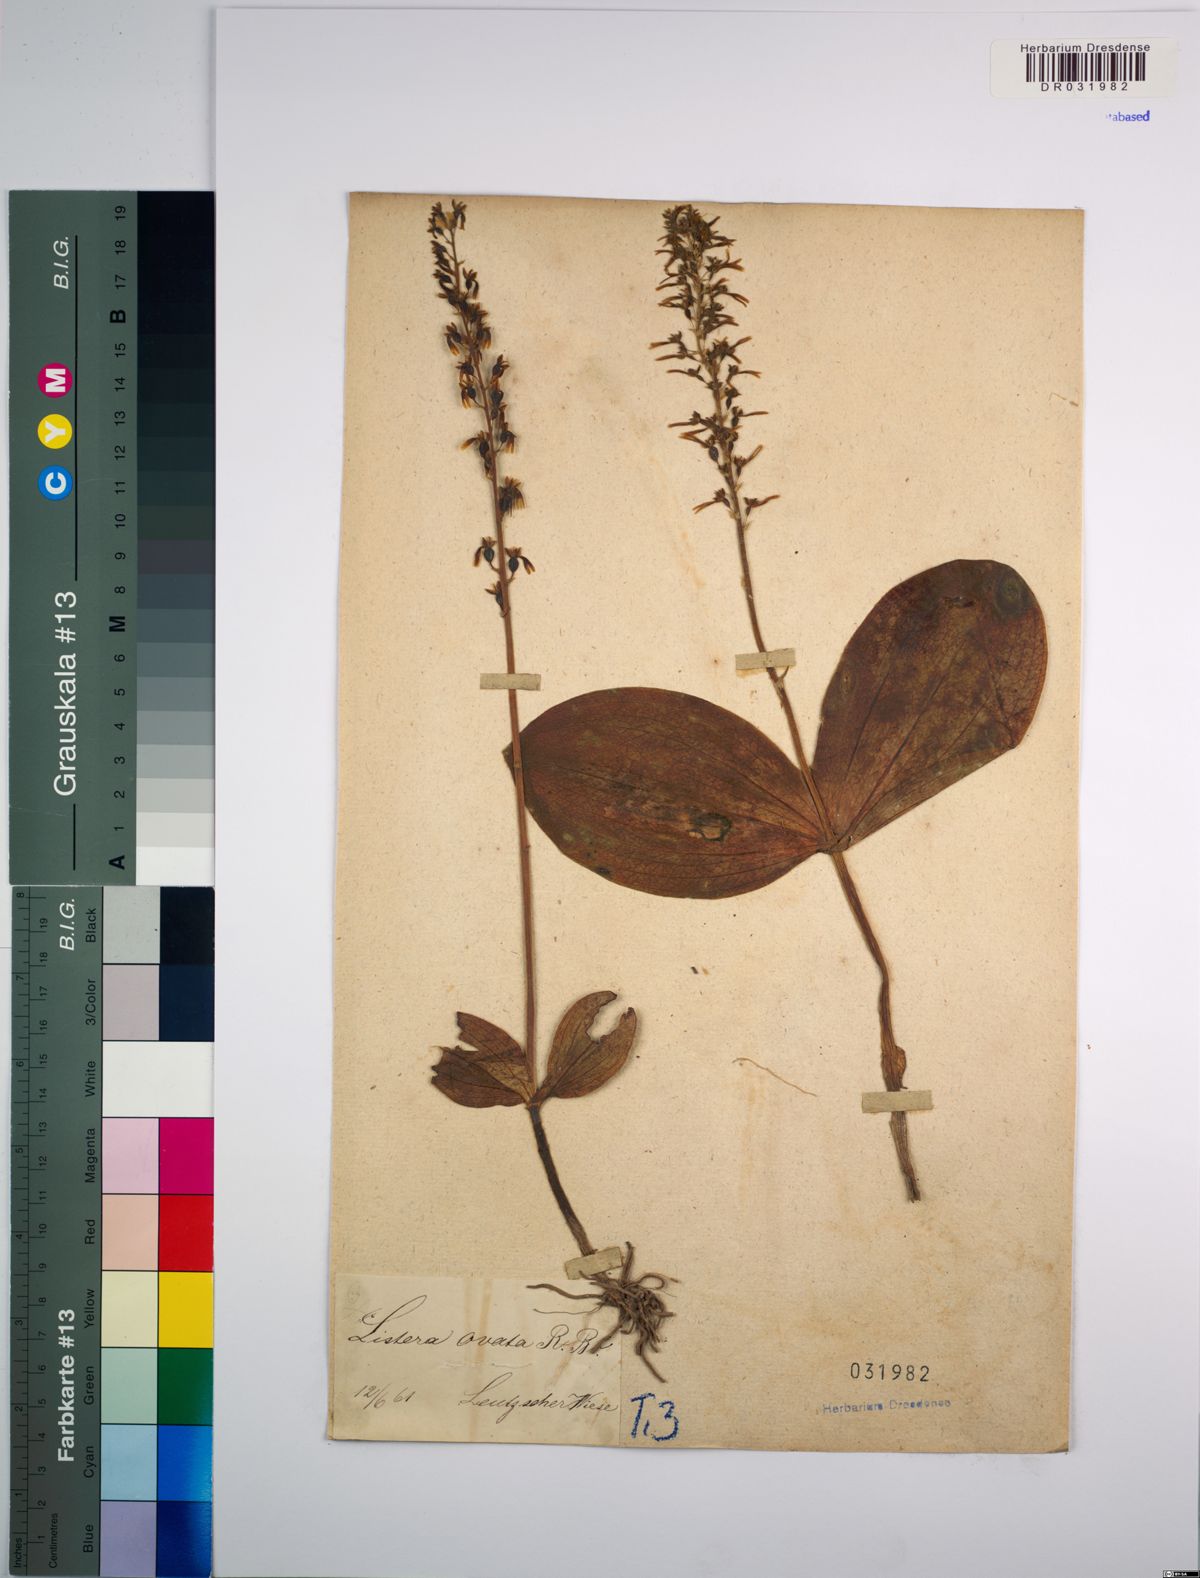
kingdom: Plantae
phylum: Tracheophyta
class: Liliopsida
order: Asparagales
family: Orchidaceae
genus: Neottia
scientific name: Neottia ovata
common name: Common twayblade
